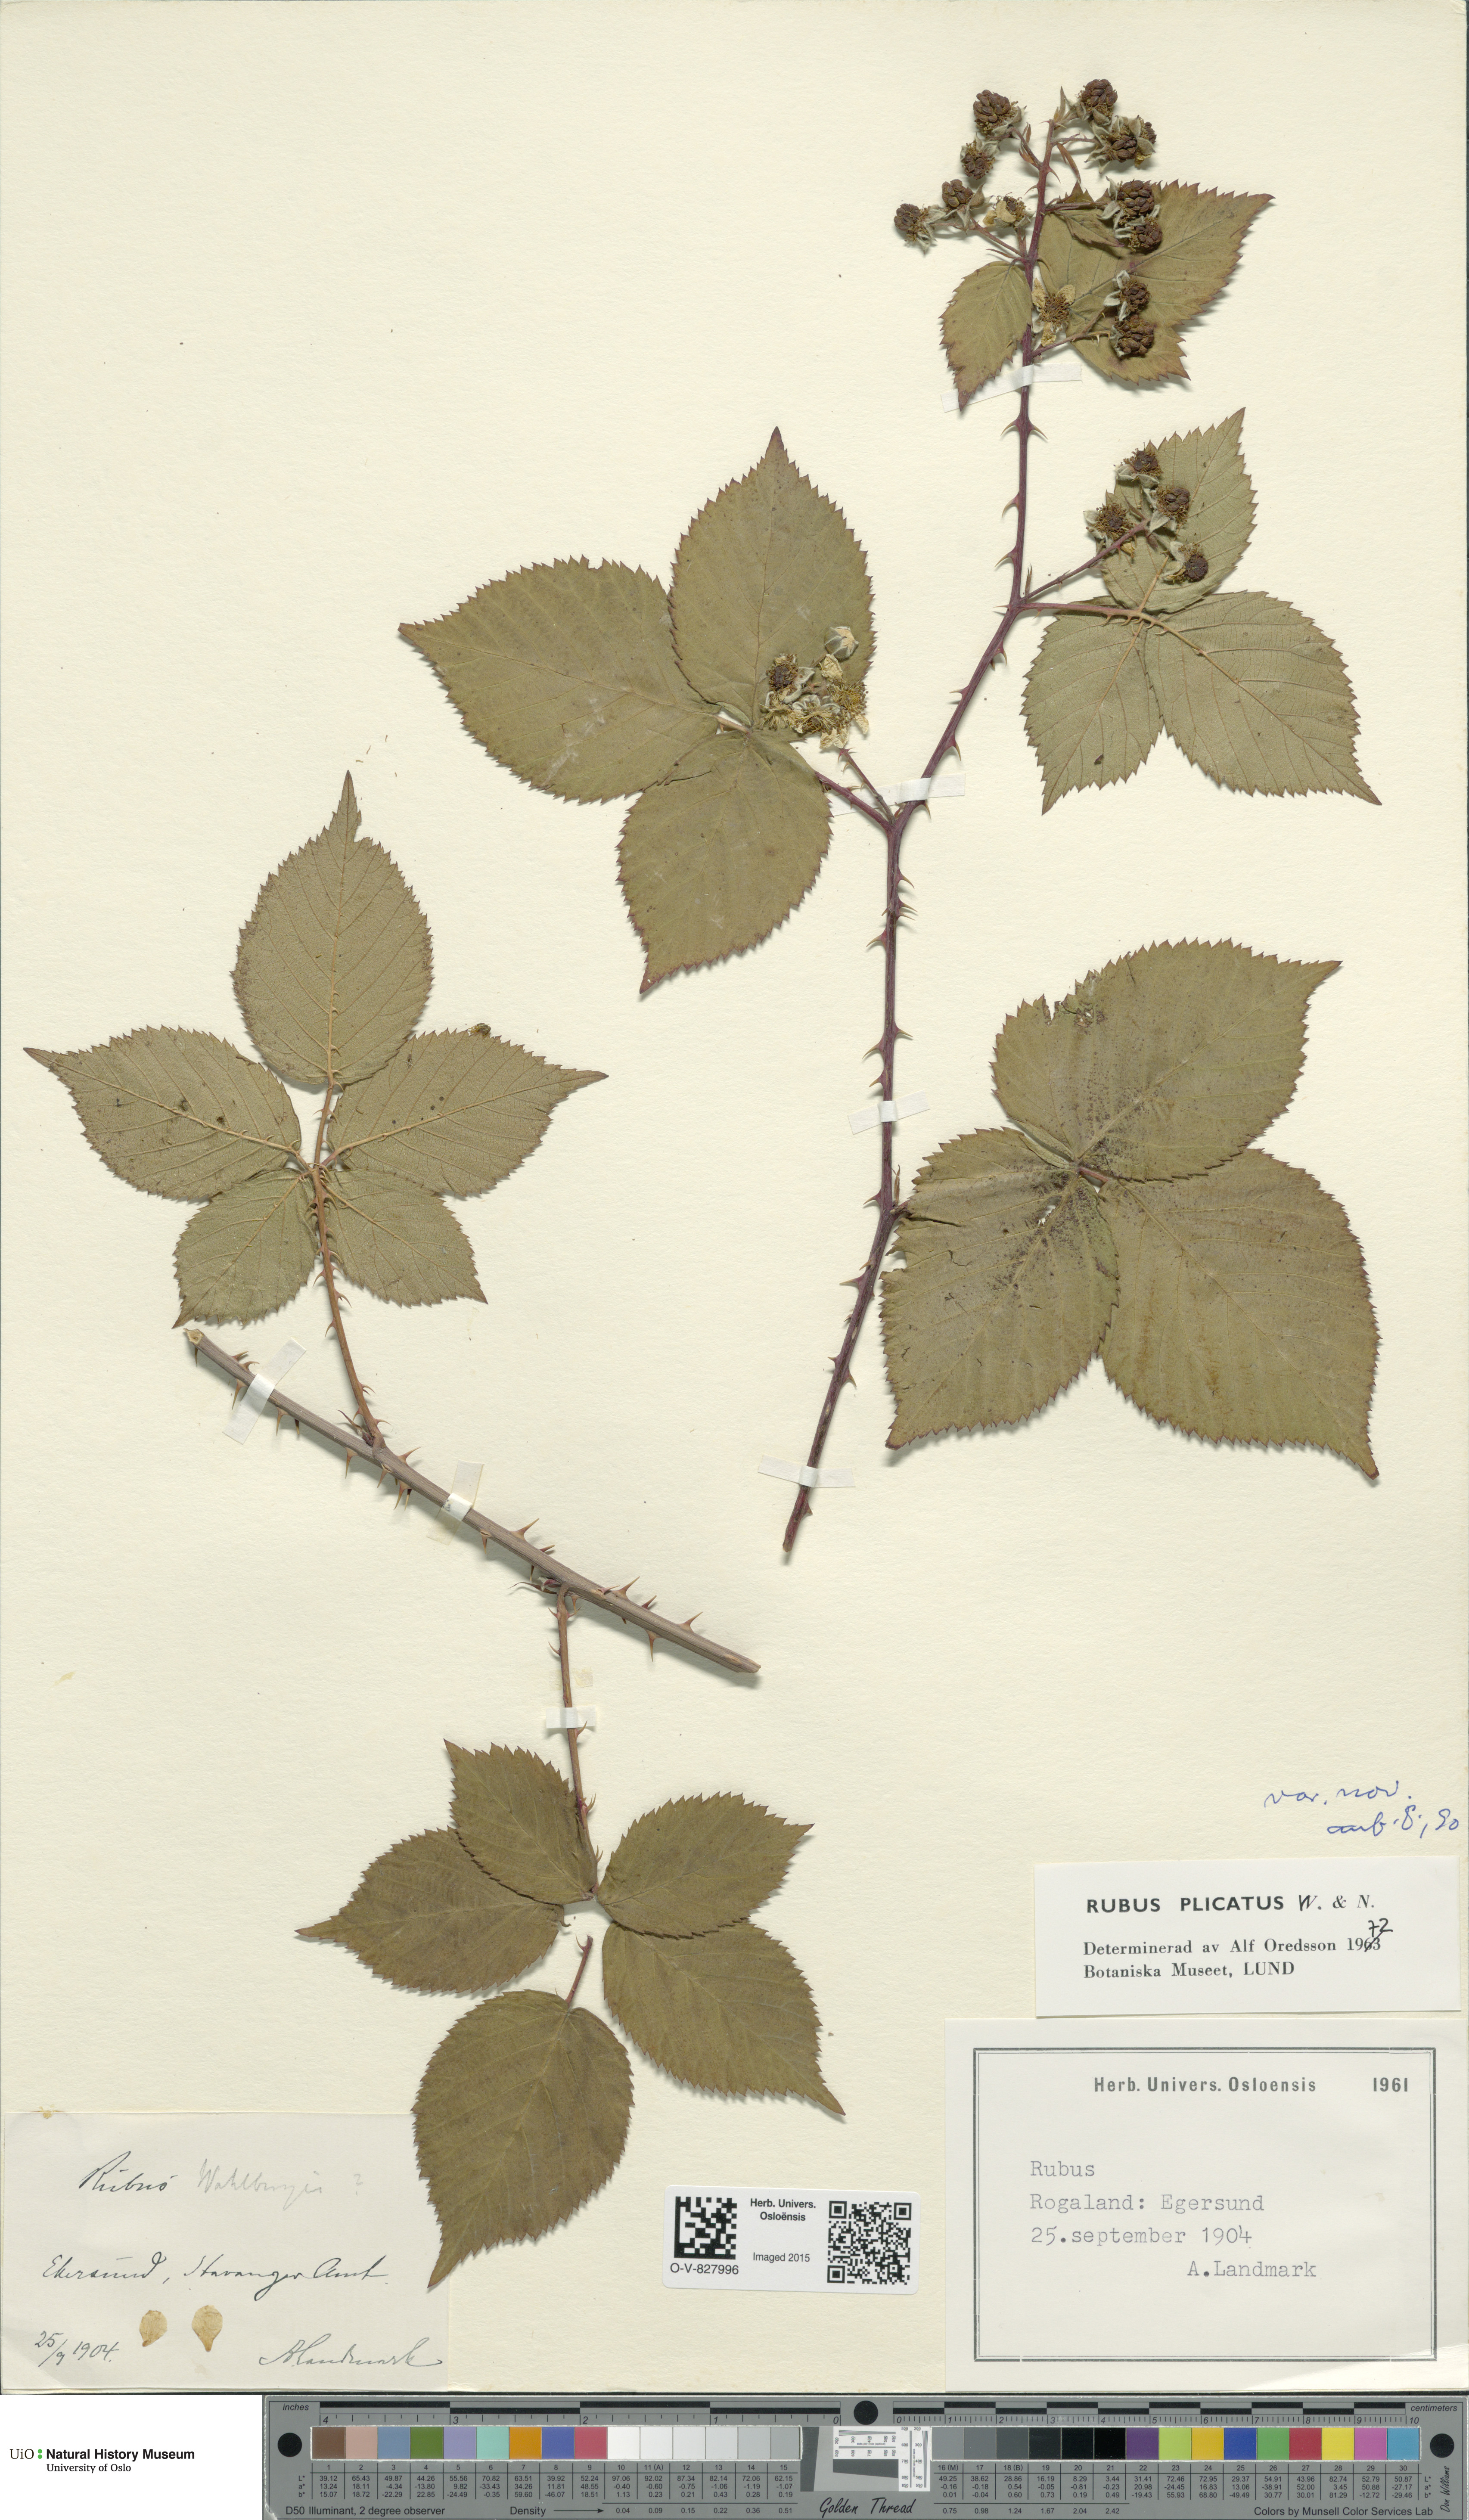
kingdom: Plantae
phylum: Tracheophyta
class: Magnoliopsida
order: Rosales
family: Rosaceae
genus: Rubus
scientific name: Rubus fruticosus
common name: Blackberry, bramble
